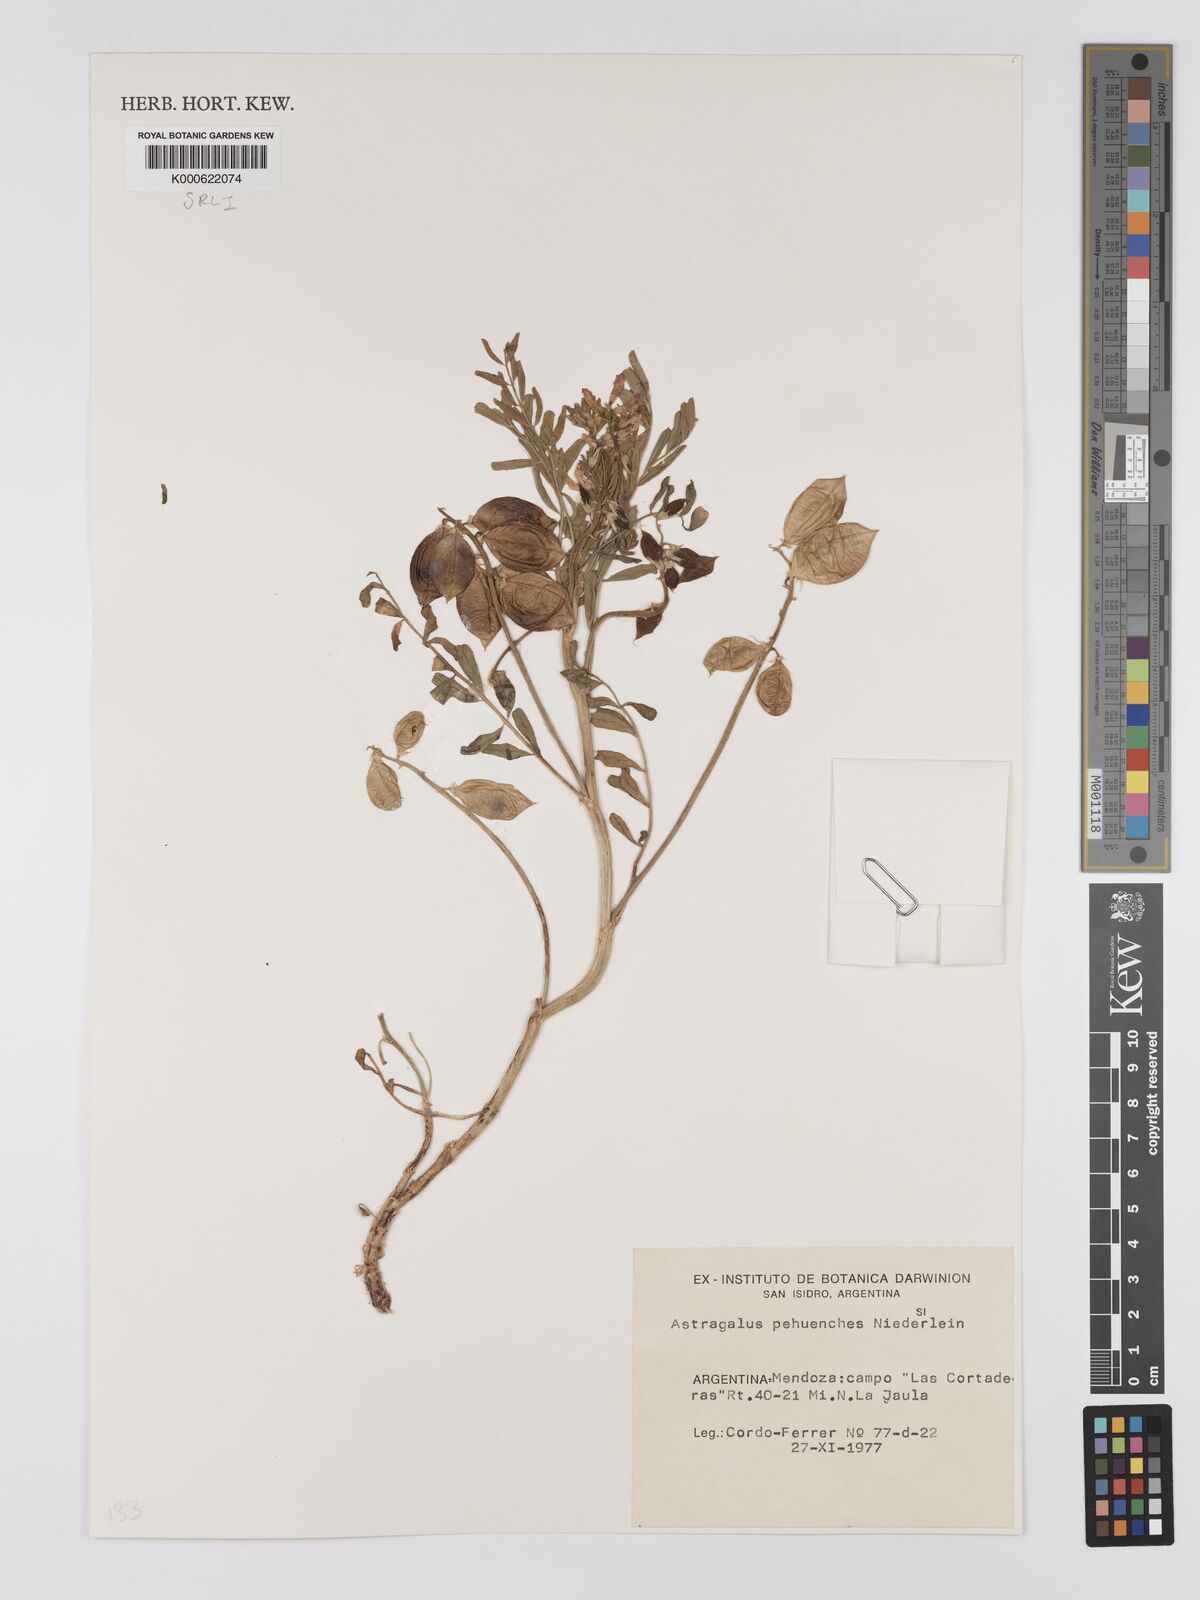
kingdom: Plantae
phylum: Tracheophyta
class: Magnoliopsida
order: Fabales
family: Fabaceae
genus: Astragalus
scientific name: Astragalus pehuenches
